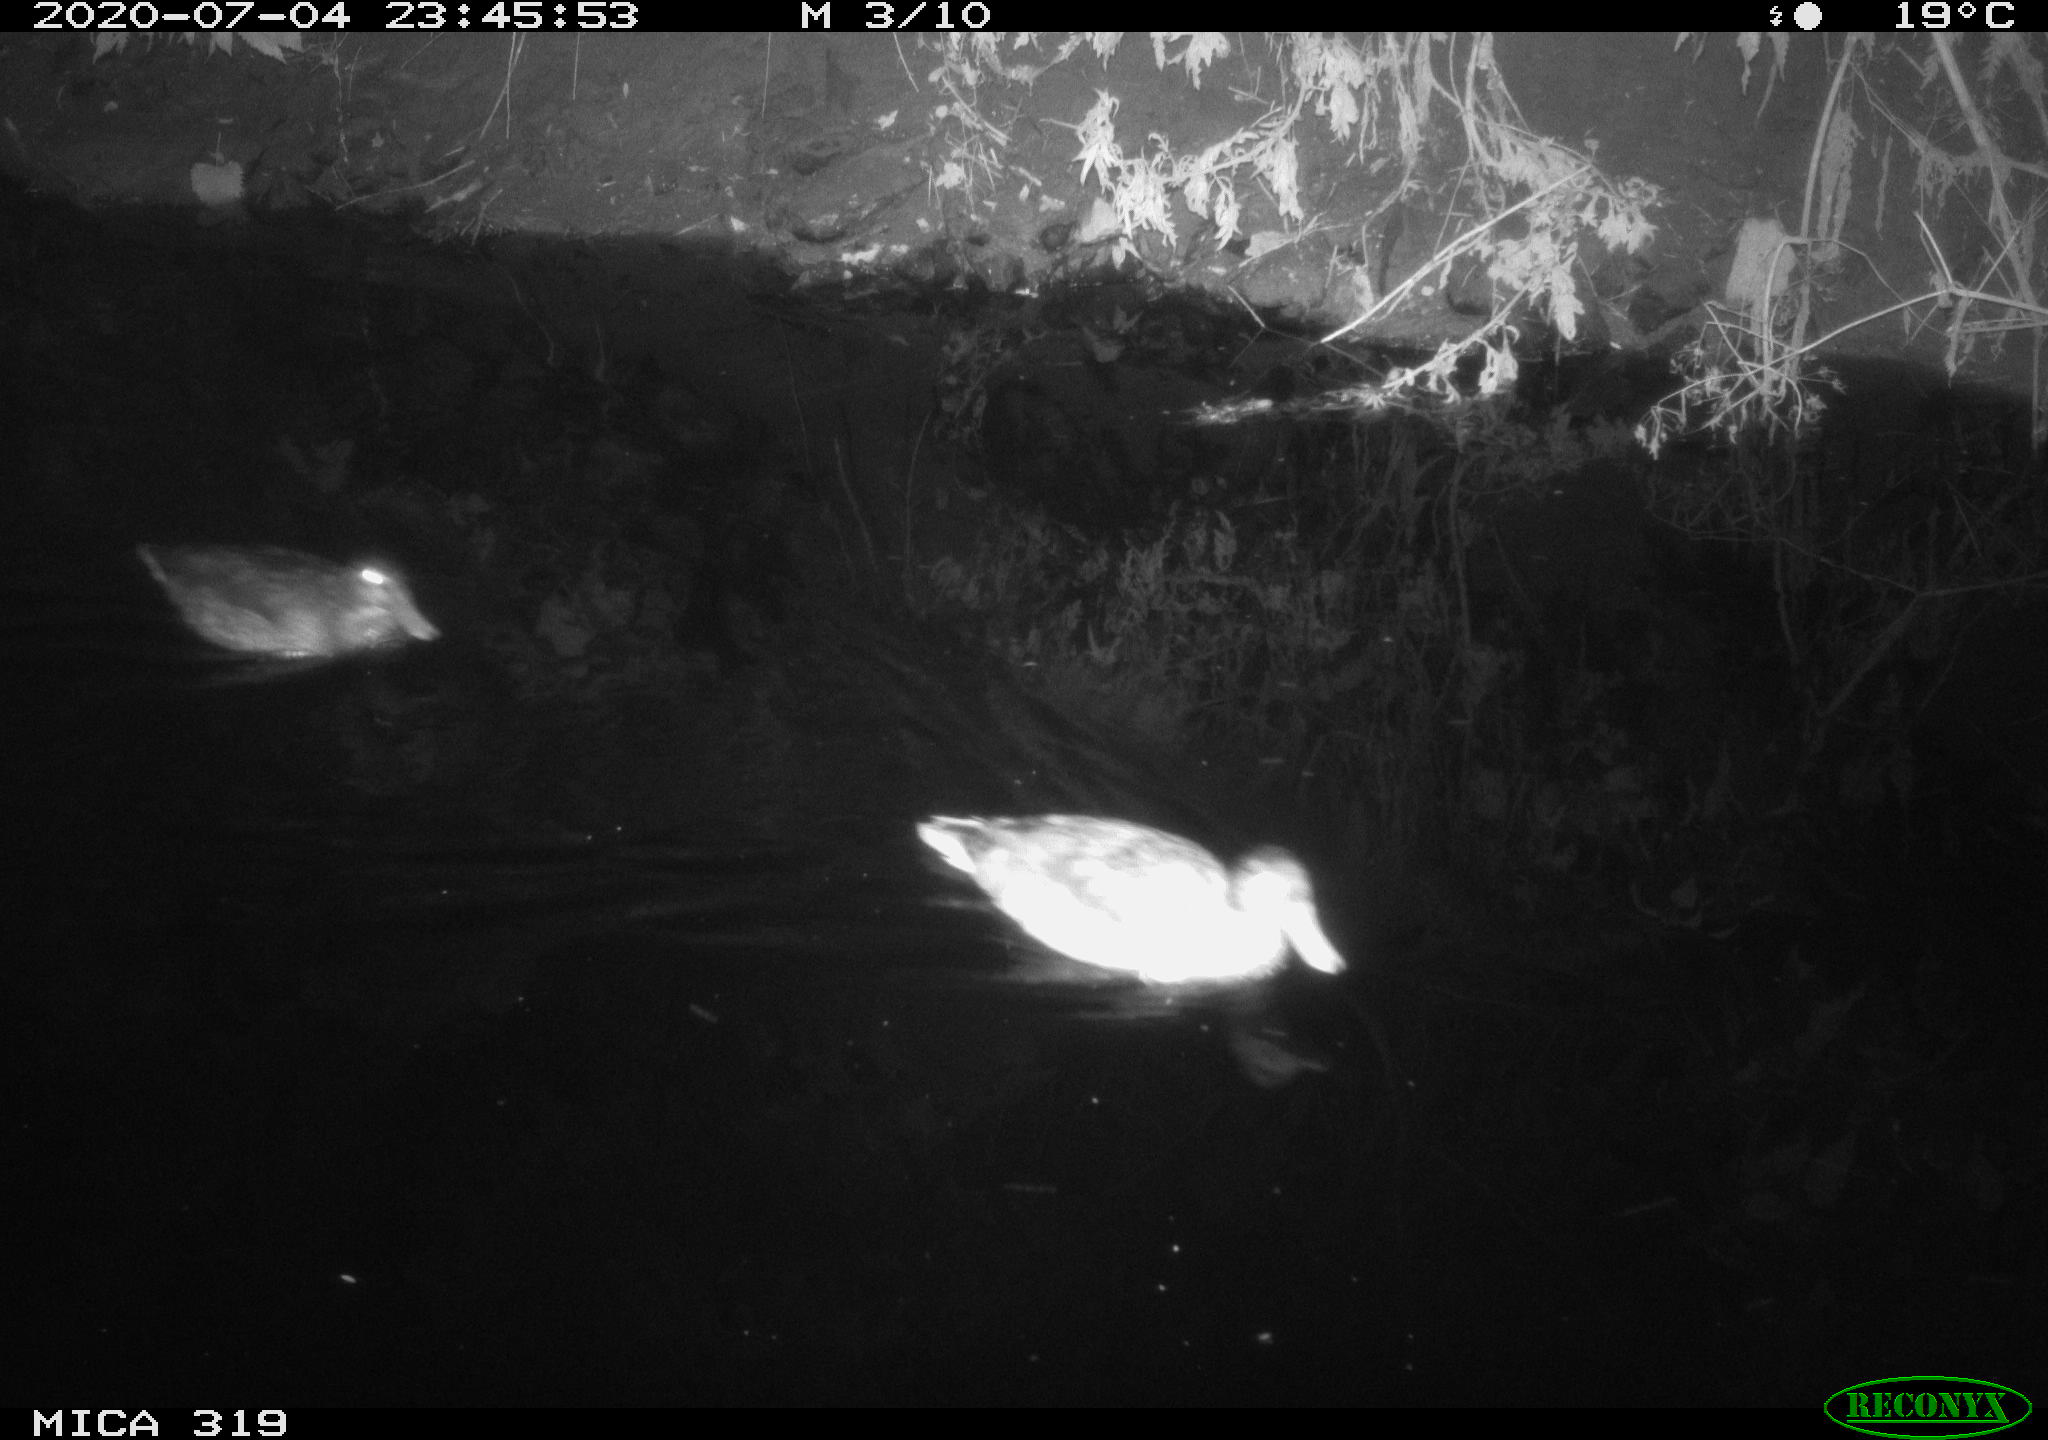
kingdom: Animalia
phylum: Chordata
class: Aves
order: Anseriformes
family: Anatidae
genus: Anas
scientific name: Anas platyrhynchos
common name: Mallard
